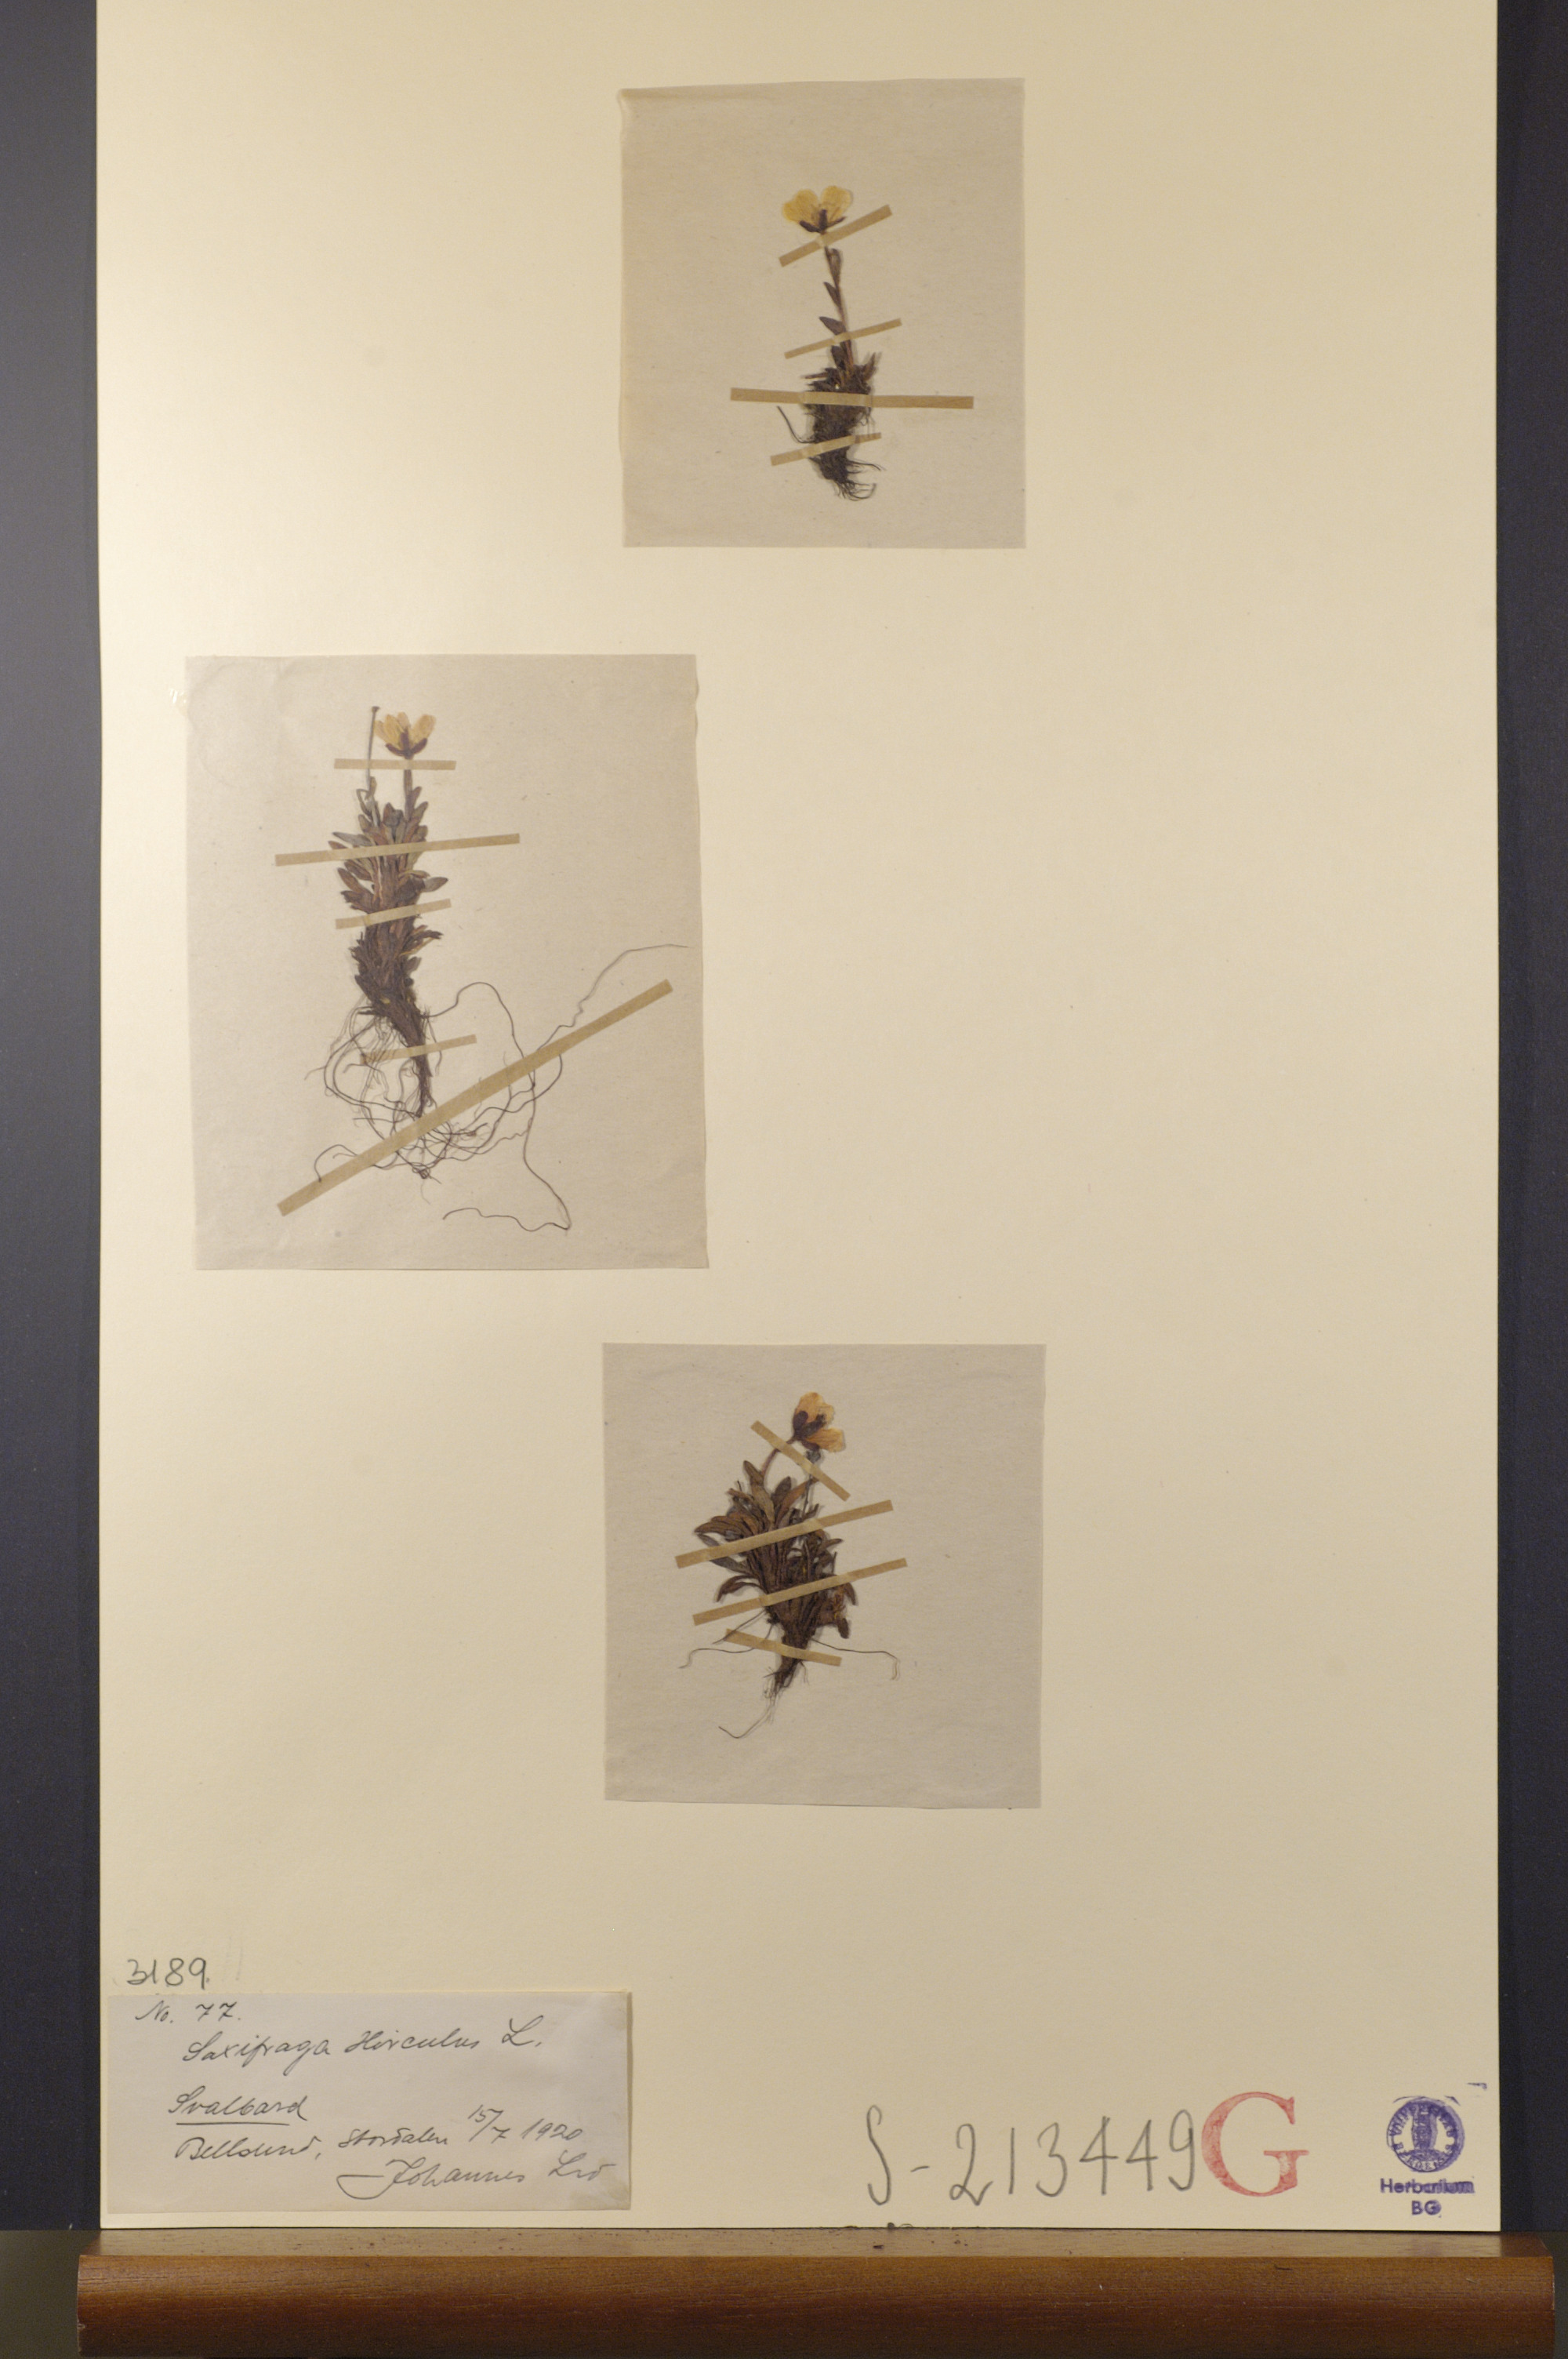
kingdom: Plantae
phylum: Tracheophyta
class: Magnoliopsida
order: Saxifragales
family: Saxifragaceae
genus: Saxifraga
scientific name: Saxifraga hirculus
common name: Yellow marsh saxifrage
